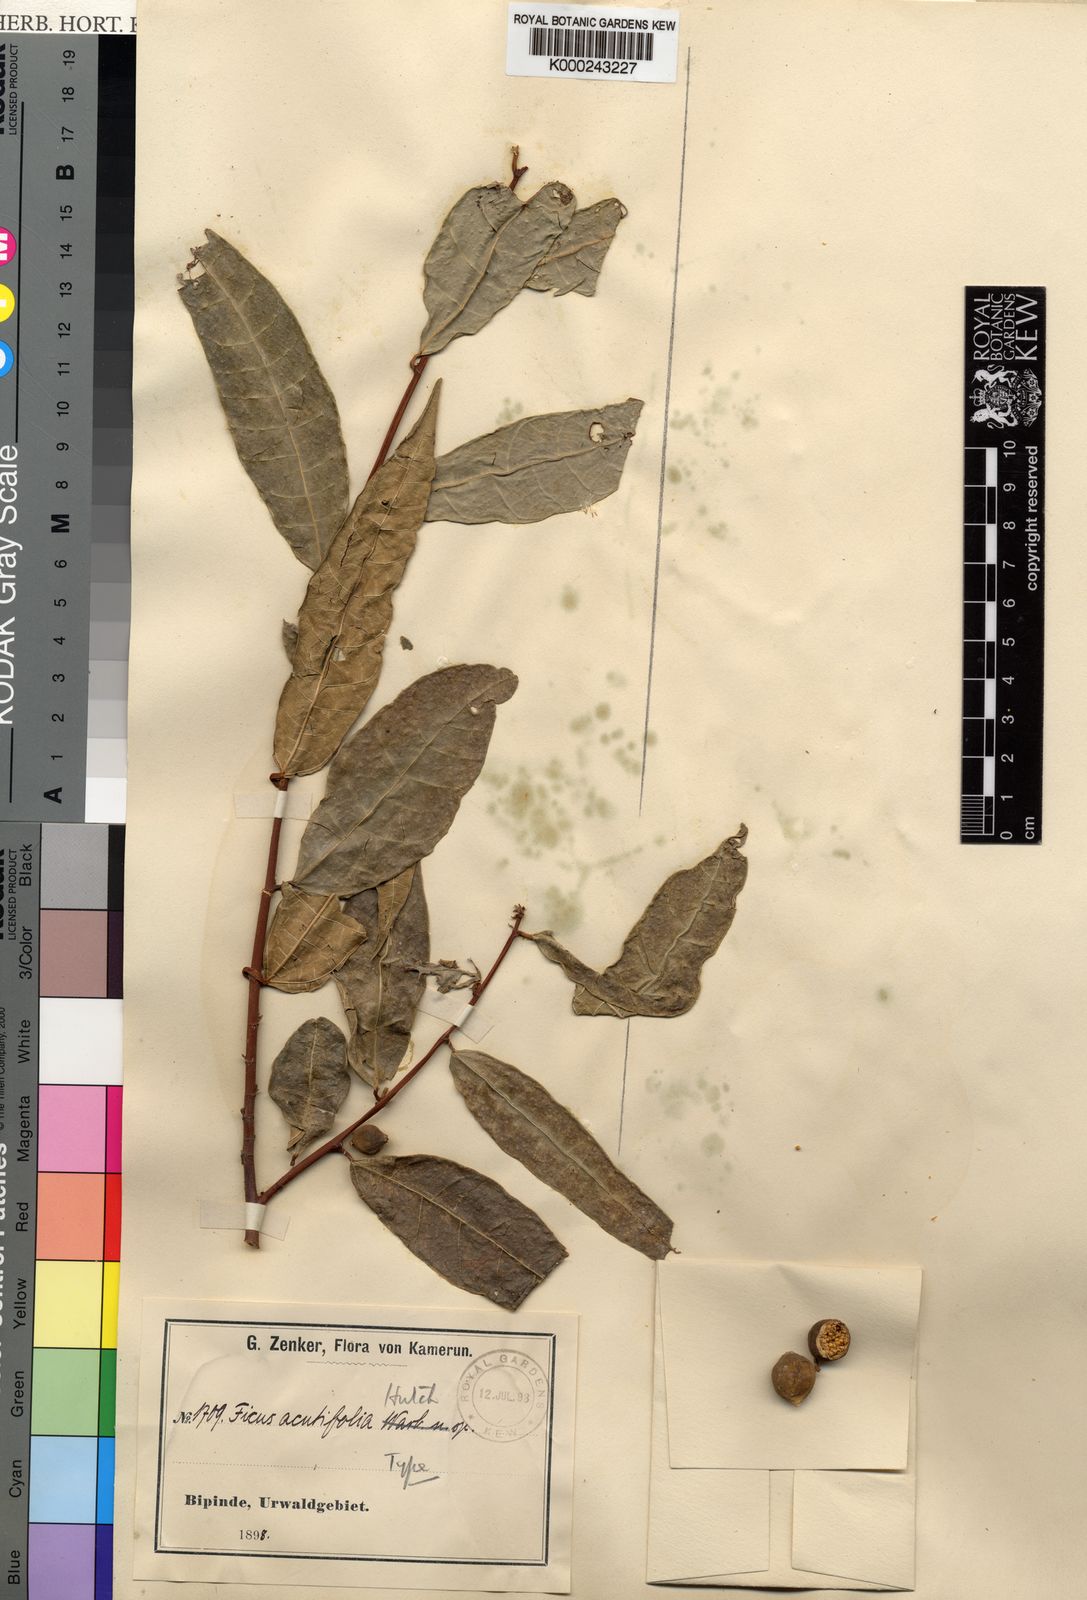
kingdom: Plantae
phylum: Tracheophyta
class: Magnoliopsida
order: Rosales
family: Moraceae
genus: Ficus
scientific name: Ficus asperifolia
